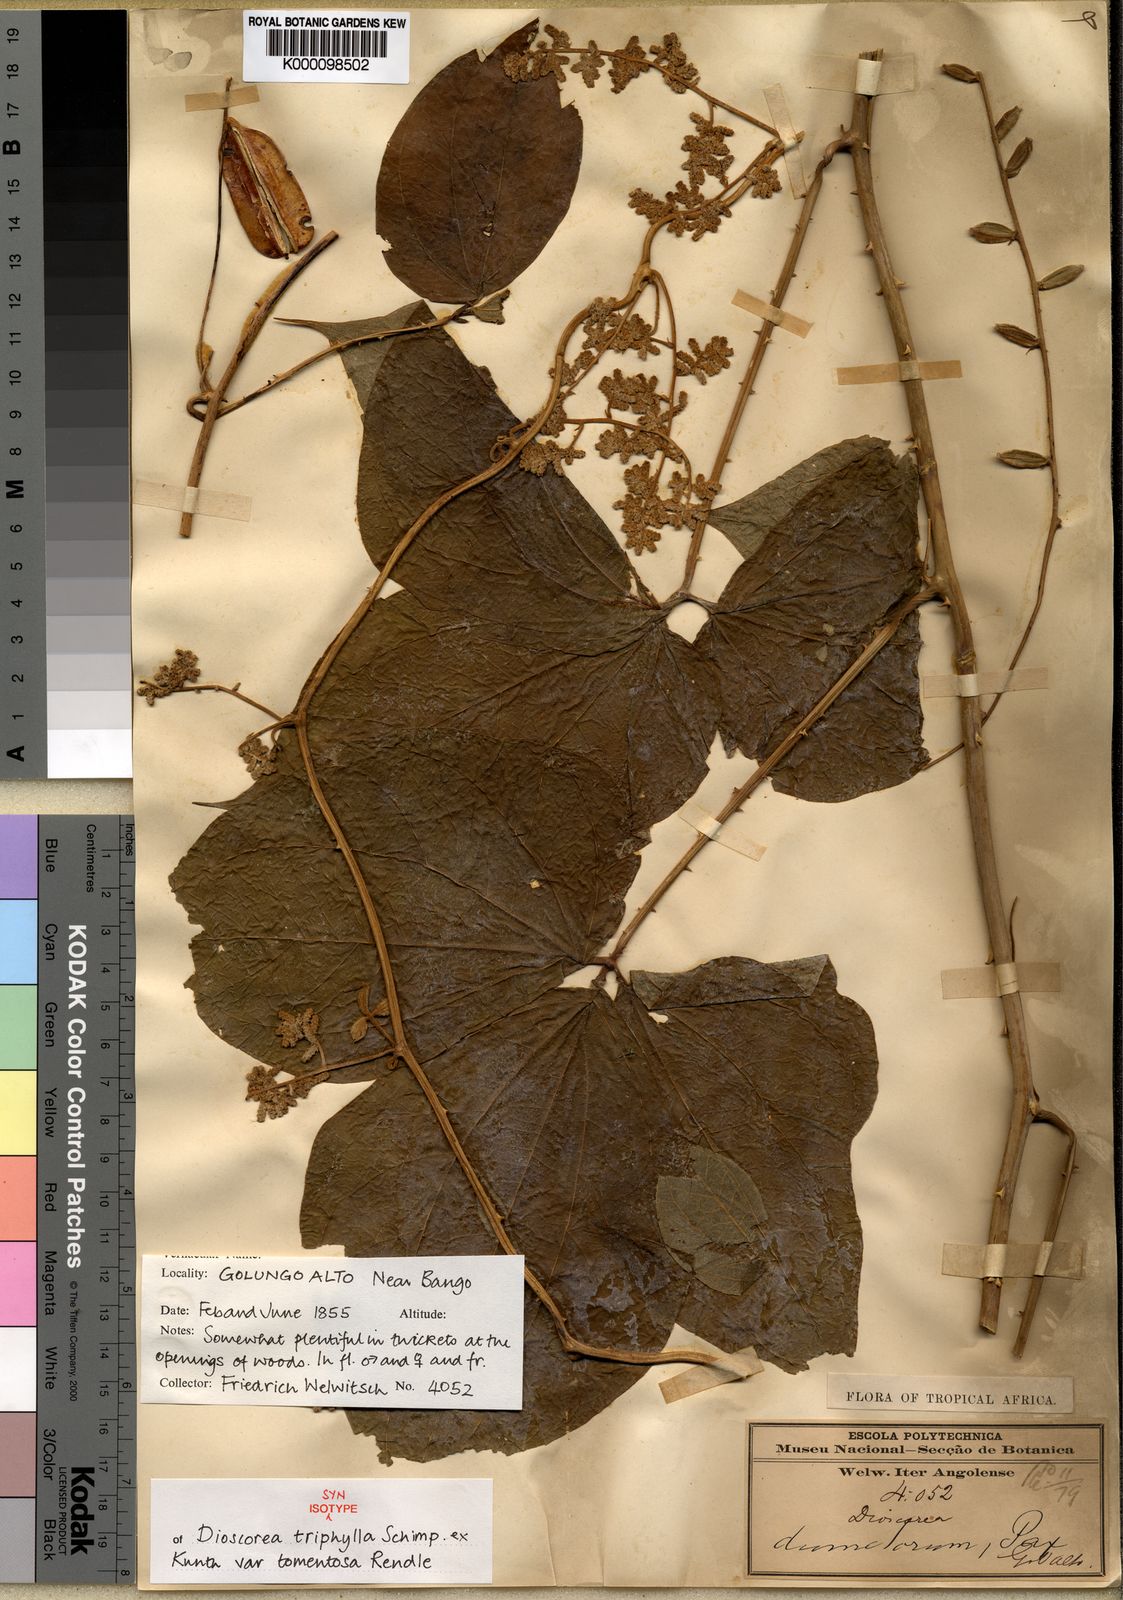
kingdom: Plantae
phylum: Tracheophyta
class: Liliopsida
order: Dioscoreales
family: Dioscoreaceae
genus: Dioscorea
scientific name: Dioscorea dumetorum
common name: African bitter yam
